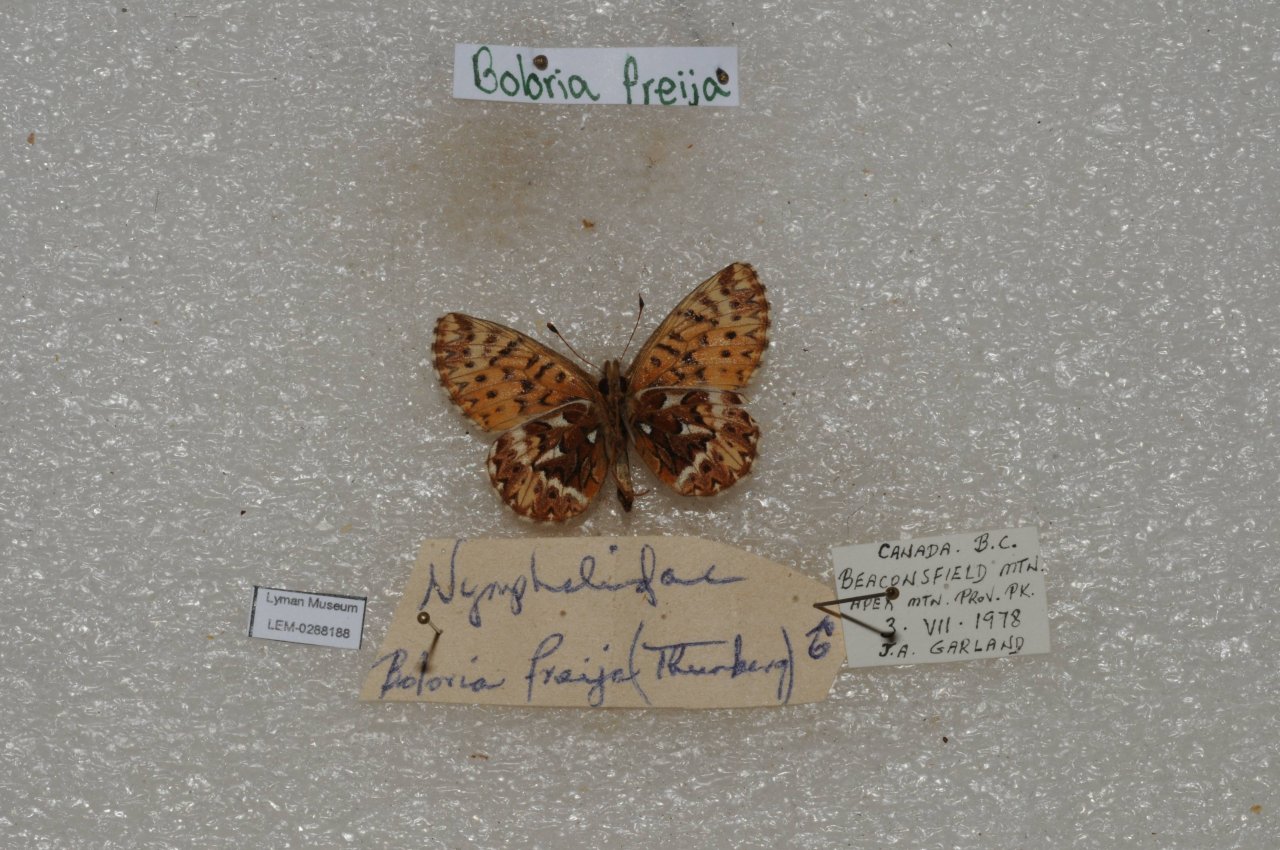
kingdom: Animalia
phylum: Arthropoda
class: Insecta
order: Lepidoptera
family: Nymphalidae
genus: Boloria
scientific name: Boloria freija
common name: Freija Fritillary
